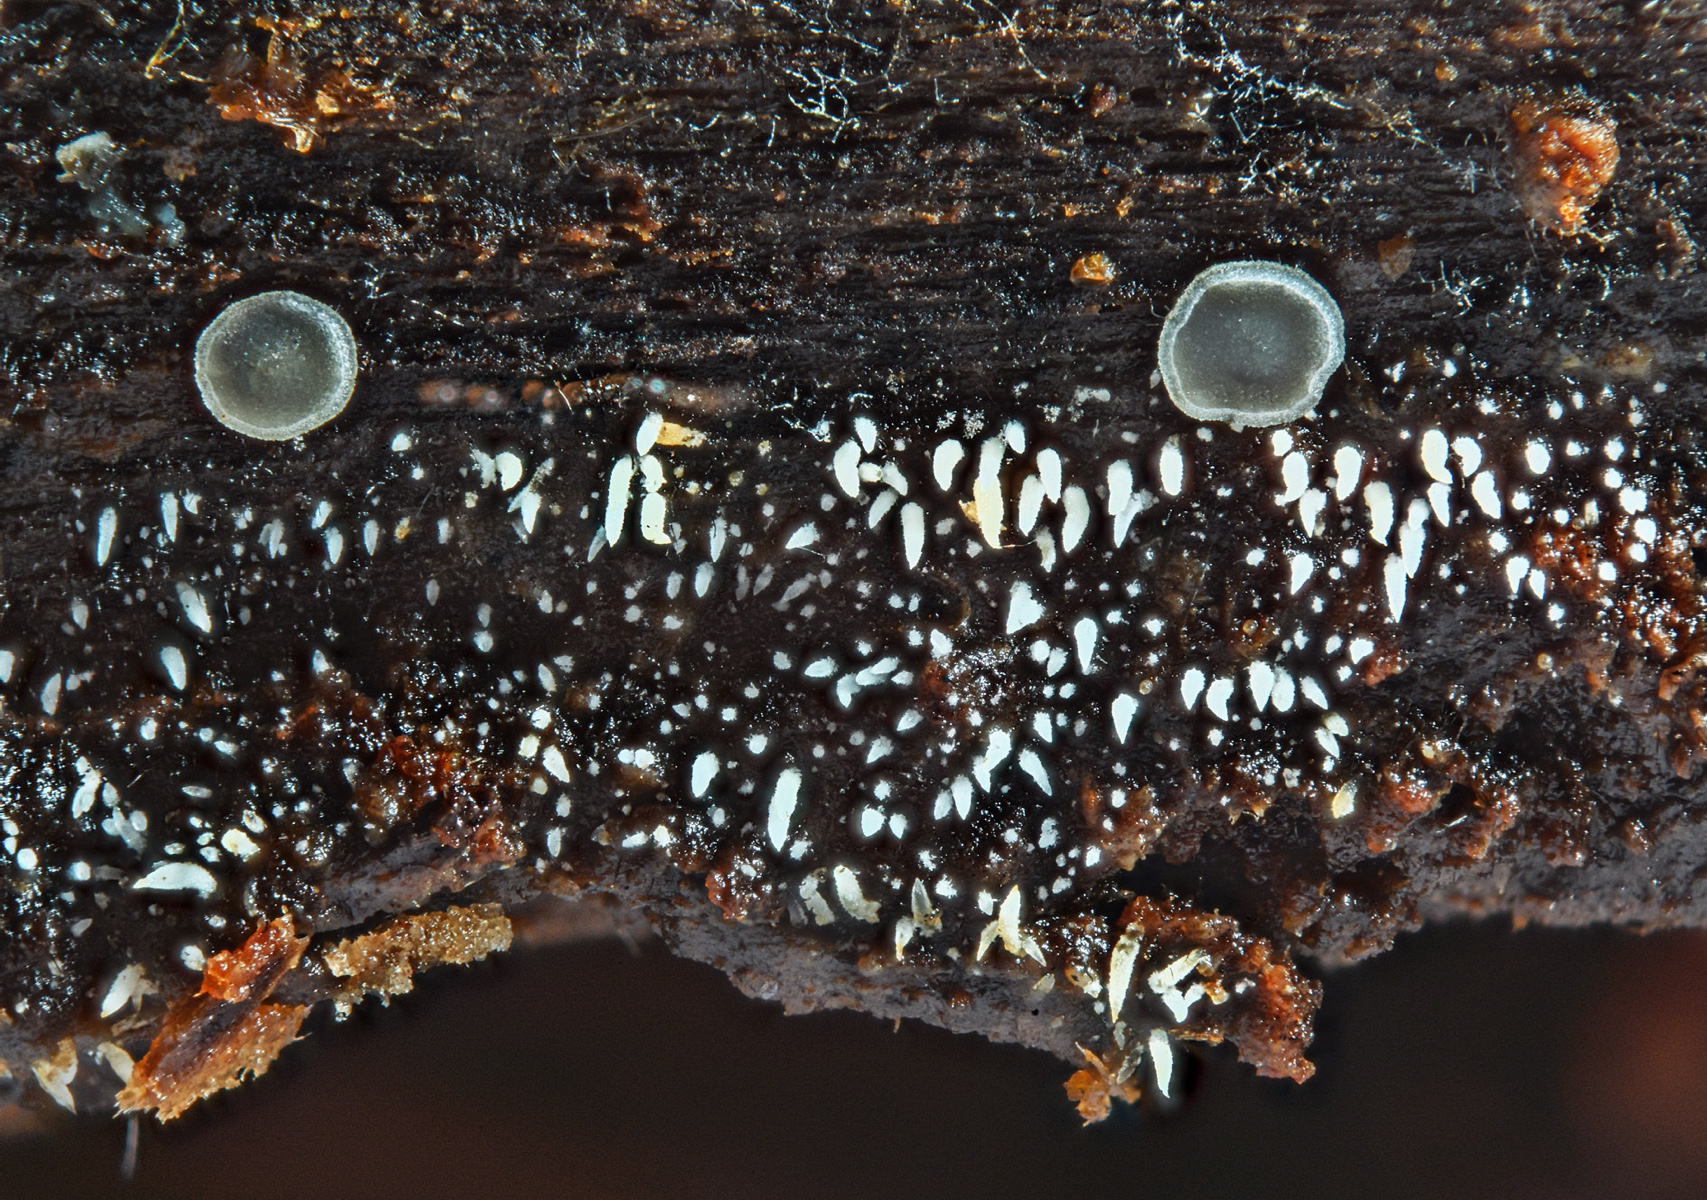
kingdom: Fungi
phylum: Basidiomycota
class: Agaricomycetes
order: Agaricales
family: Clavariaceae
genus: Mucronella
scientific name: Mucronella calva
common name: hvid hængepig
